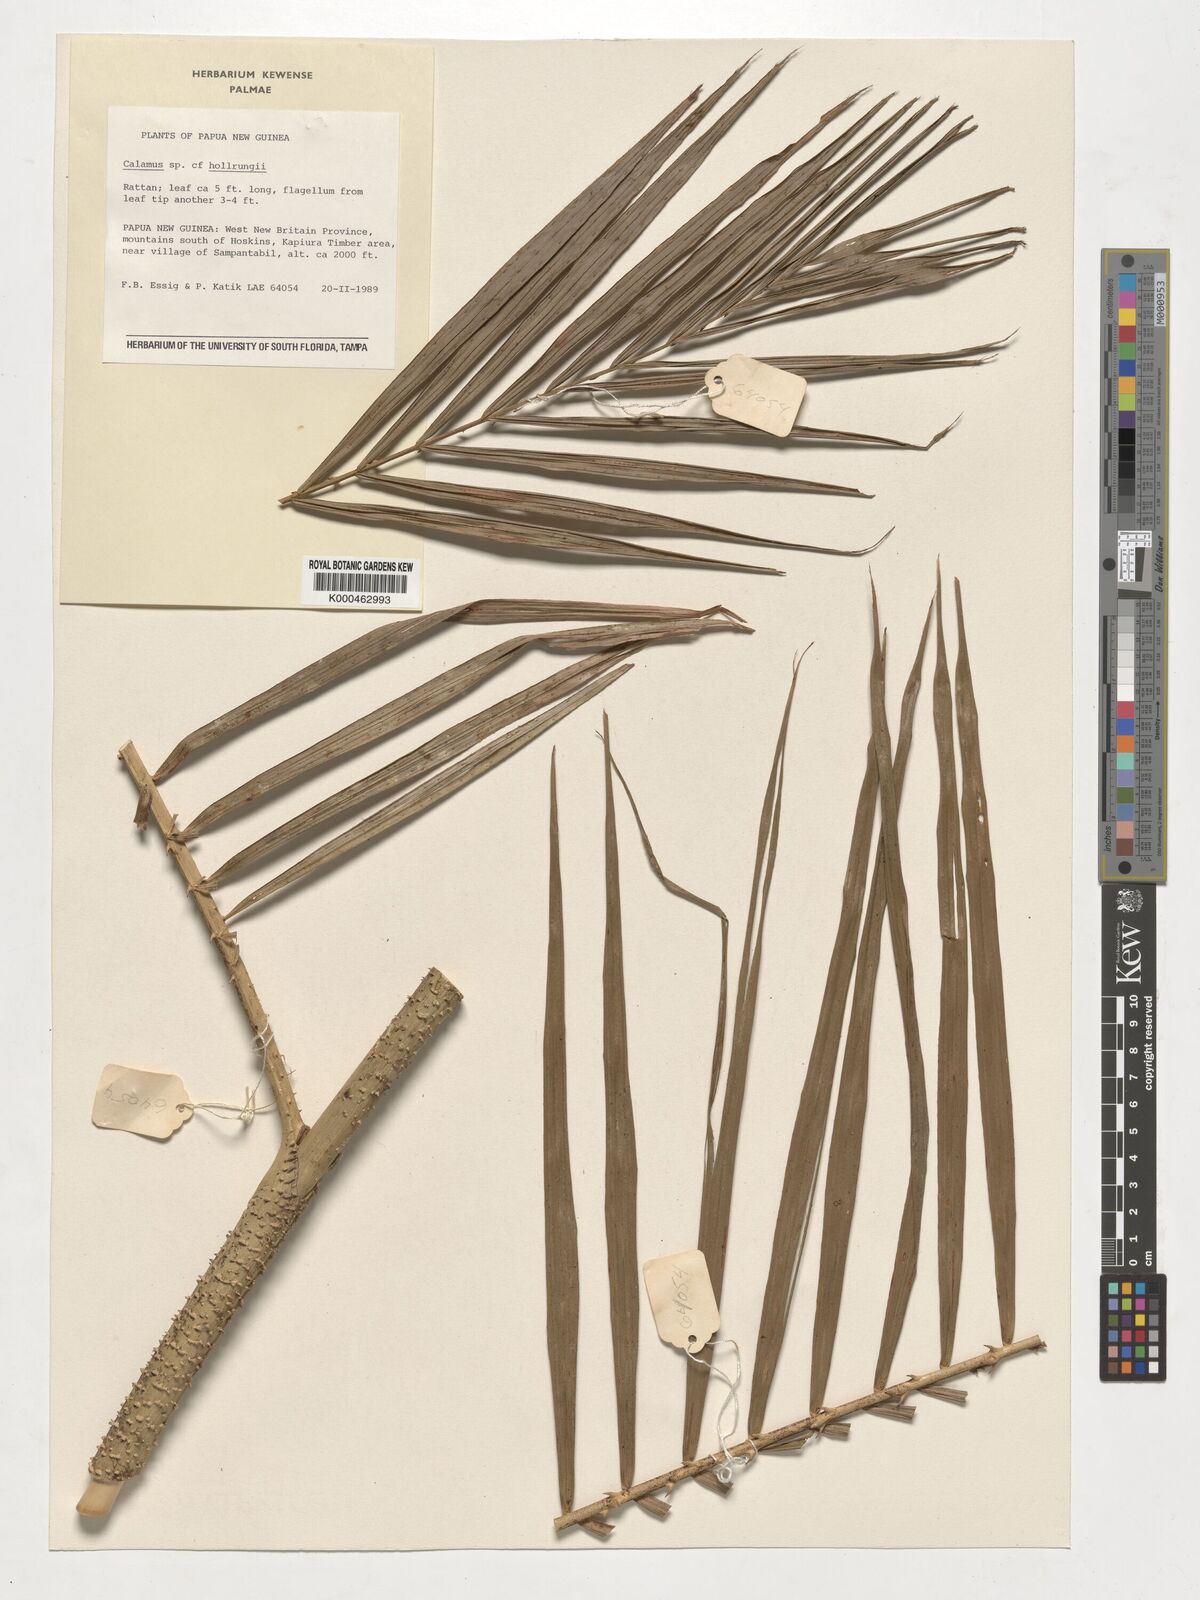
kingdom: Plantae
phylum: Tracheophyta
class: Liliopsida
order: Arecales
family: Arecaceae
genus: Calamus
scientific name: Calamus
